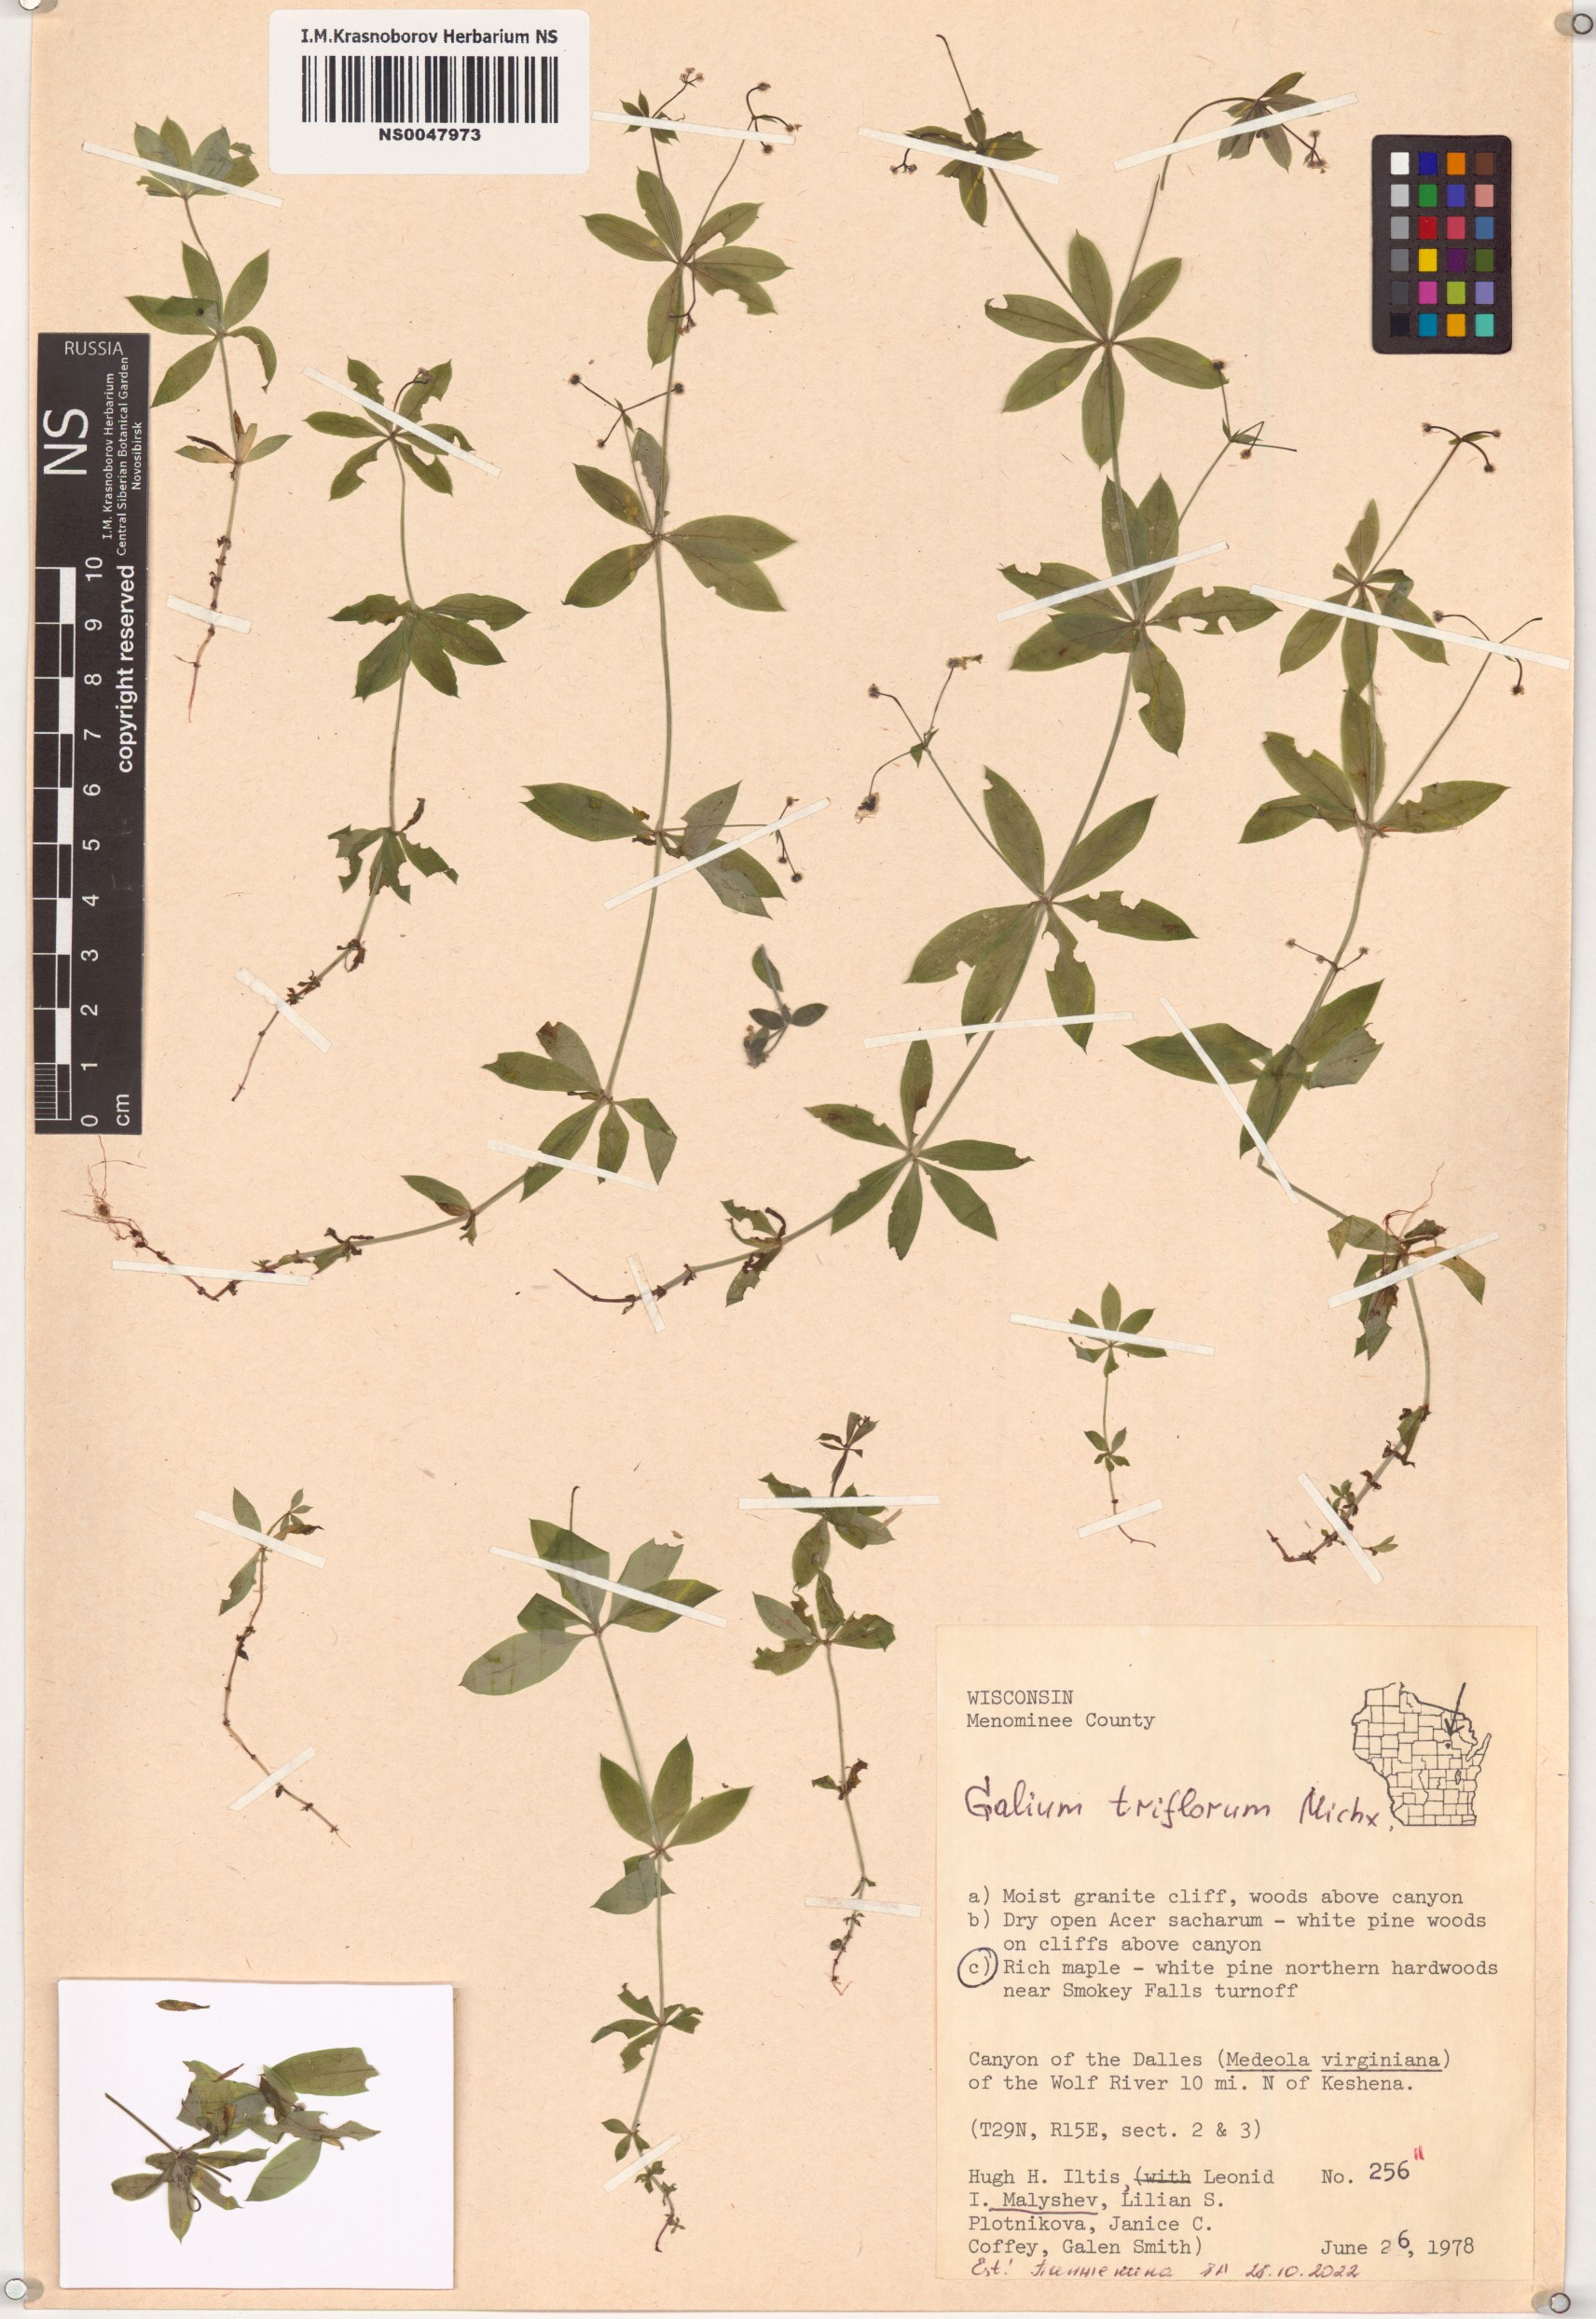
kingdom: Plantae
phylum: Tracheophyta
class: Magnoliopsida
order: Gentianales
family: Rubiaceae
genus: Galium
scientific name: Galium triflorum
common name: Fragrant bedstraw
